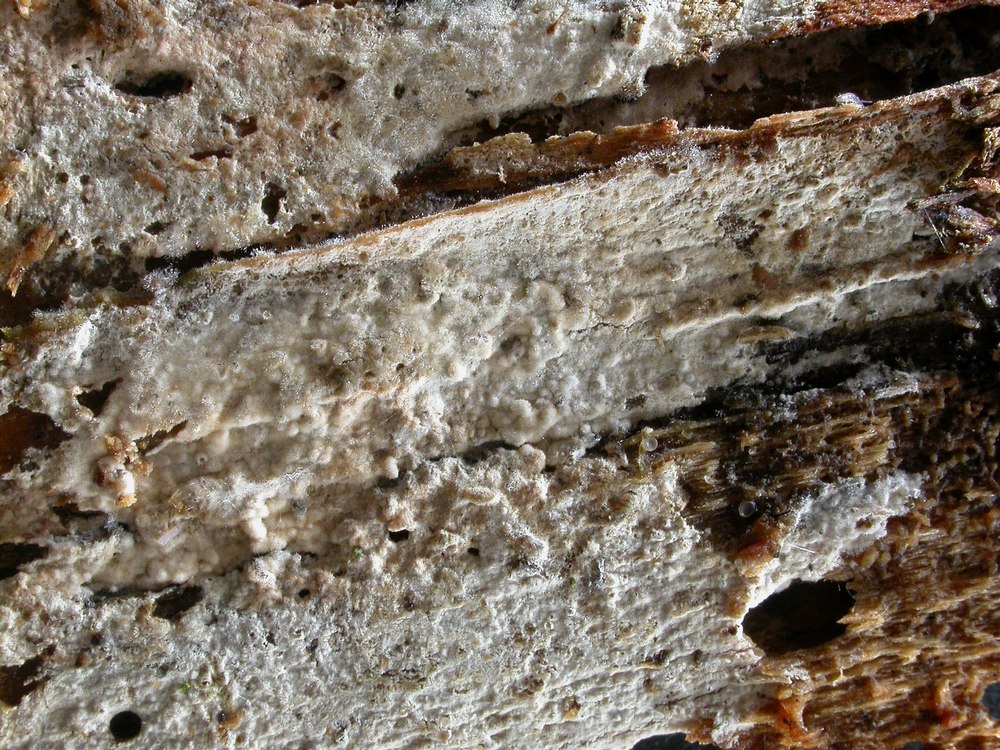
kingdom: Fungi
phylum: Basidiomycota
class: Agaricomycetes
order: Hymenochaetales
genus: Kurtia
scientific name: Kurtia argillacea
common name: Kurts kalkskind
